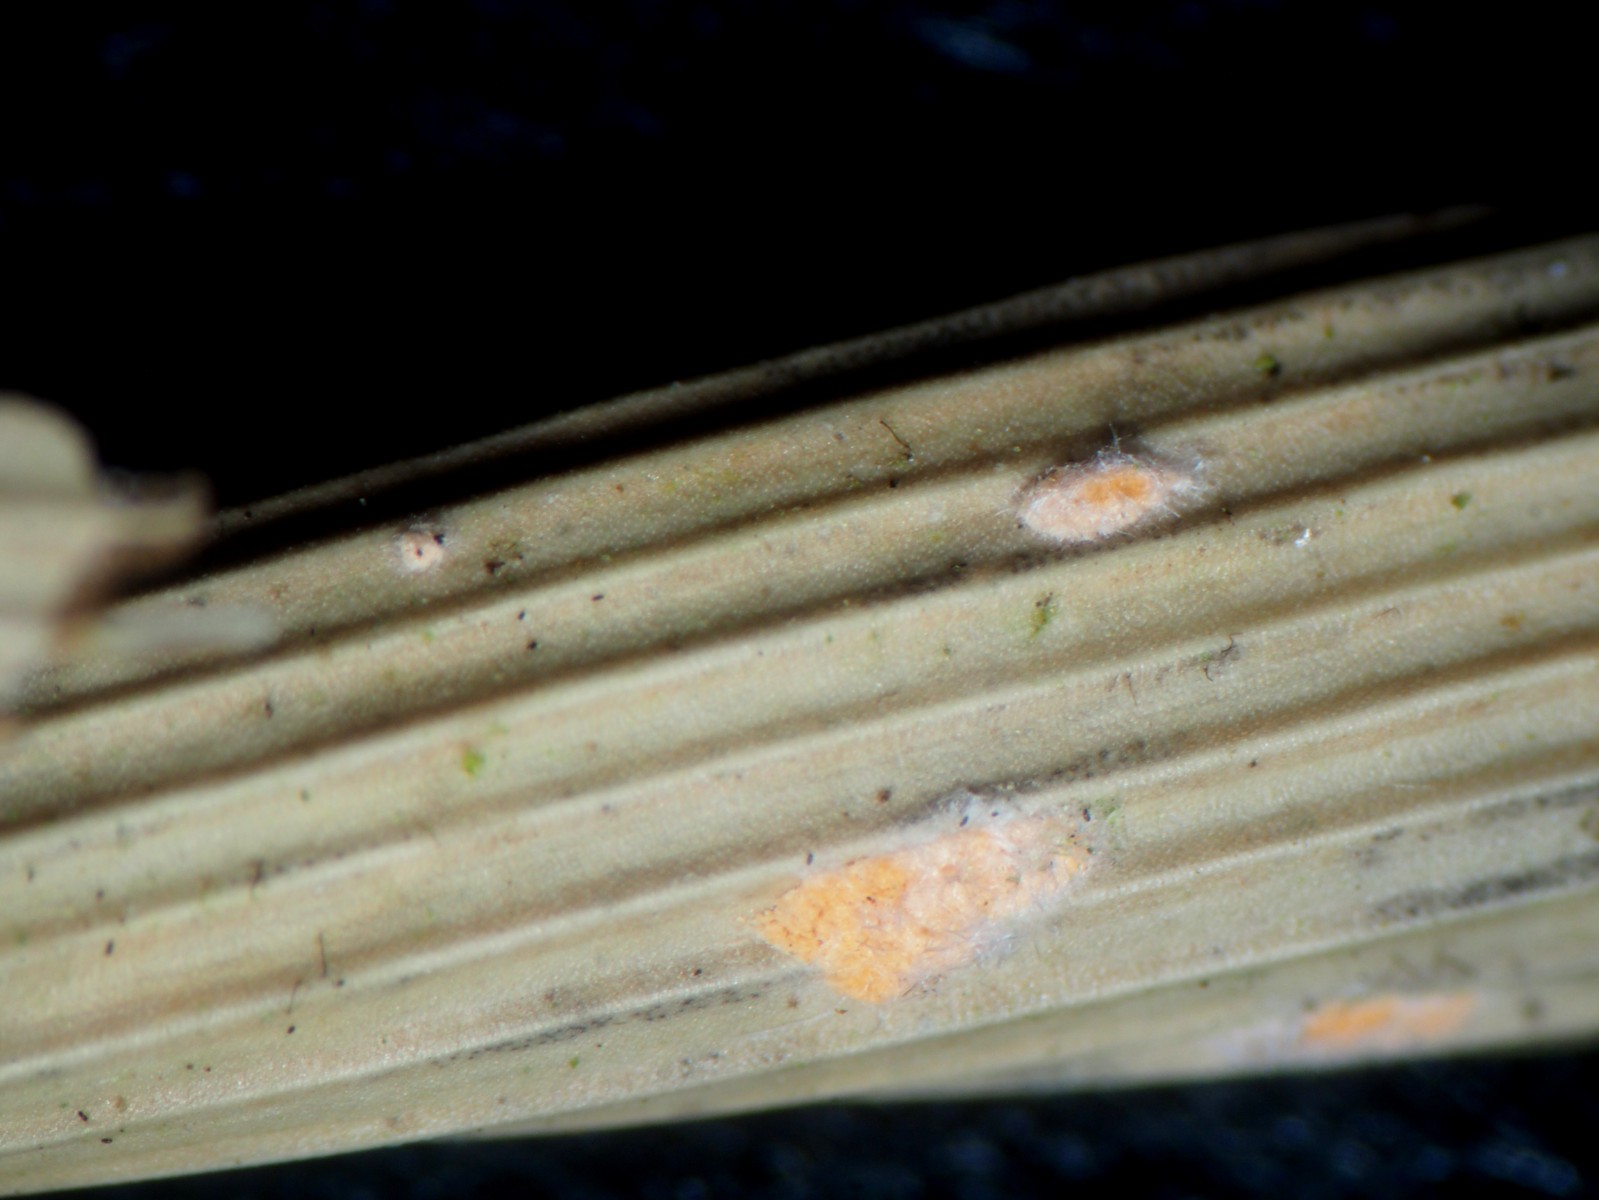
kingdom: Fungi
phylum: Ascomycota
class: Sordariomycetes
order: Hypocreales
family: Nectriaceae
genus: Volutella
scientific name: Volutella arundinis
